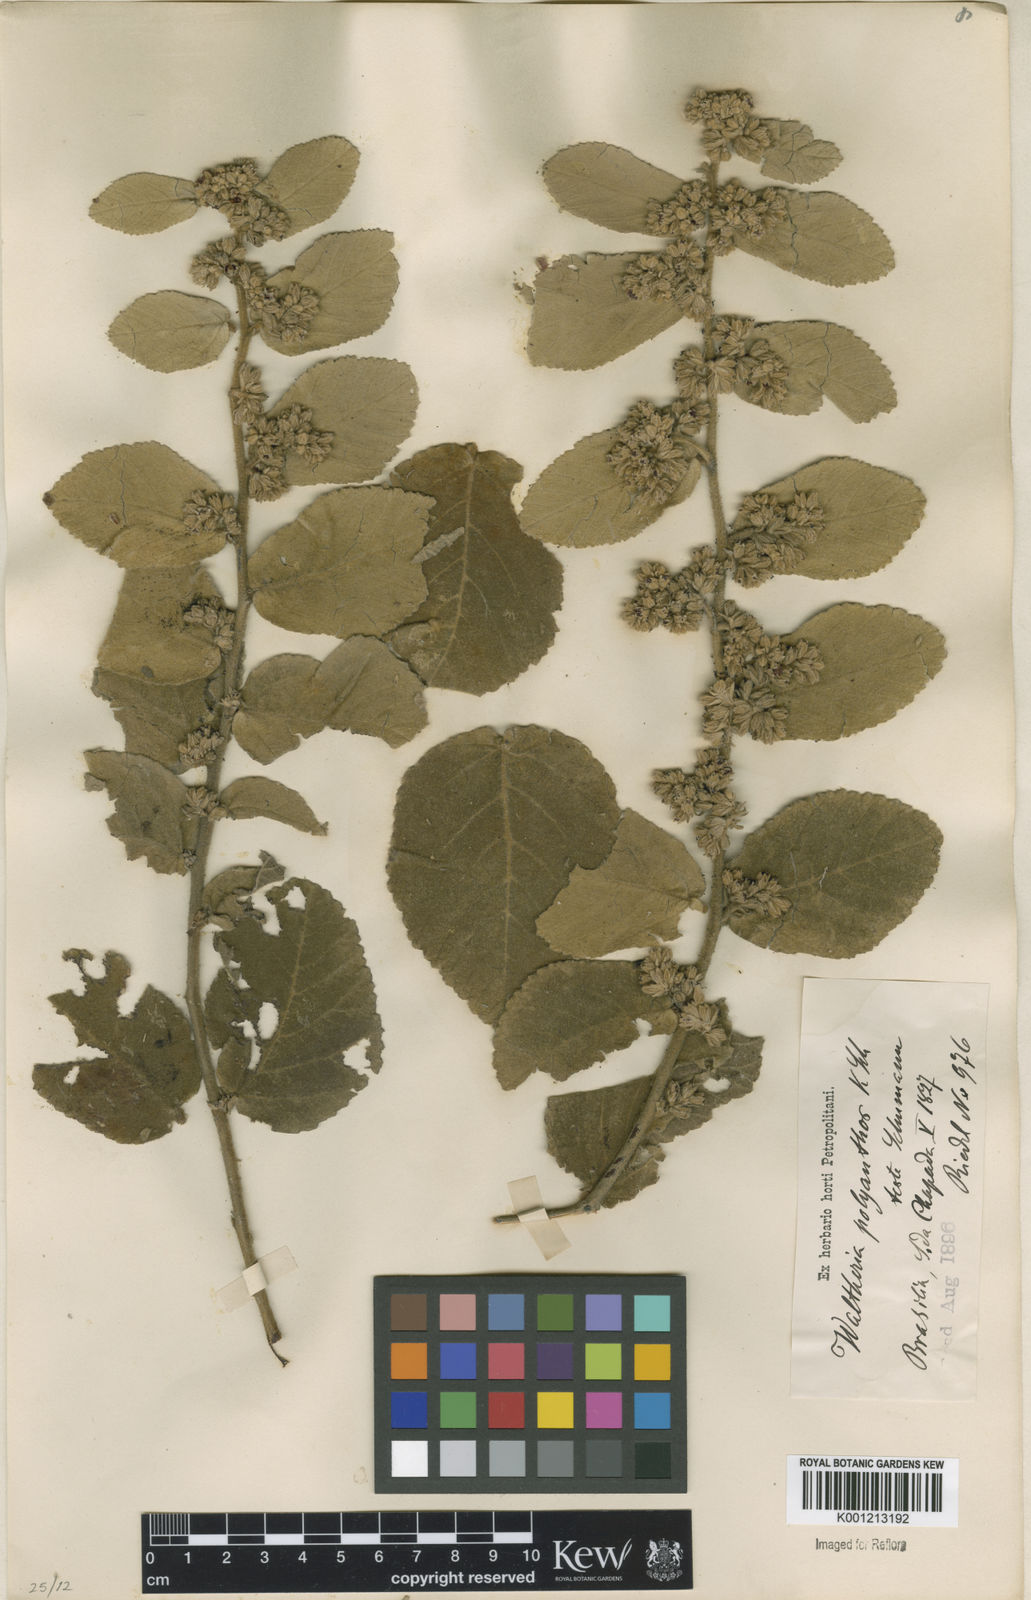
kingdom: Plantae
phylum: Tracheophyta
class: Magnoliopsida
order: Malvales
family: Malvaceae
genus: Waltheria
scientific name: Waltheria polyantha
